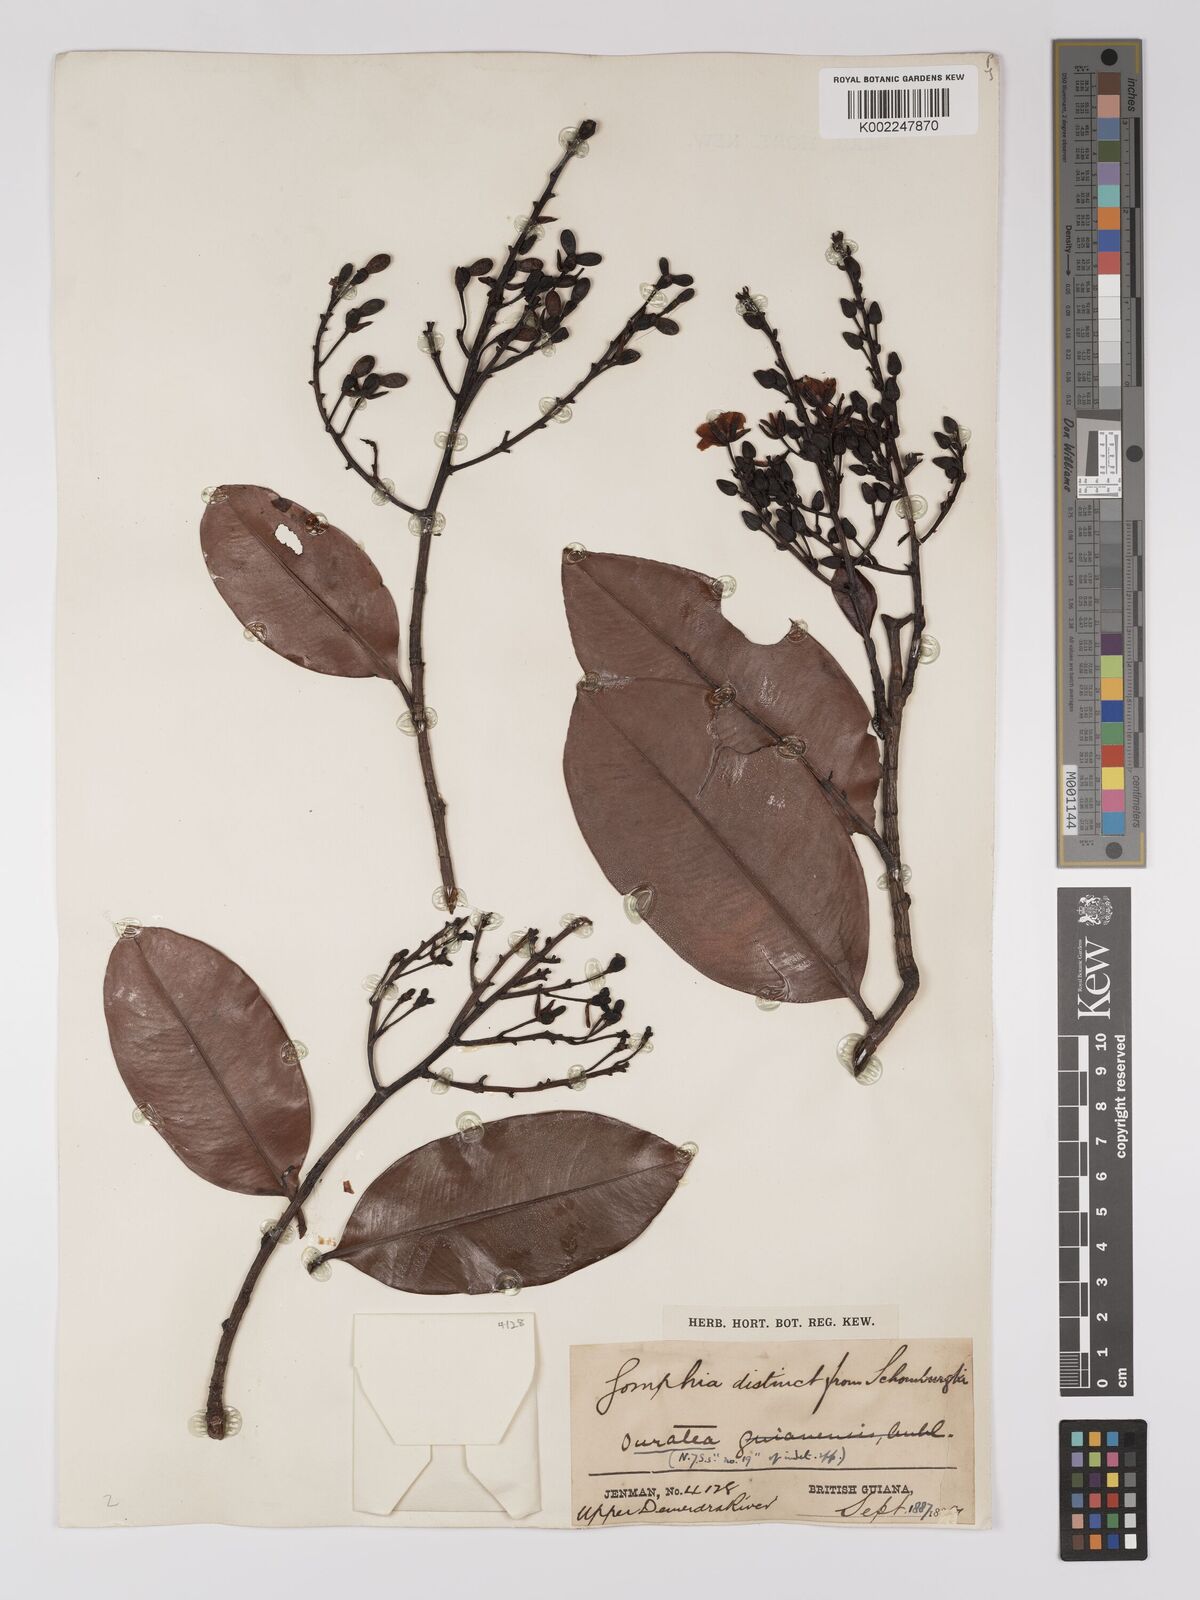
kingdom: Plantae
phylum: Tracheophyta
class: Magnoliopsida
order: Malpighiales
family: Ochnaceae
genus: Ouratea
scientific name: Ouratea
